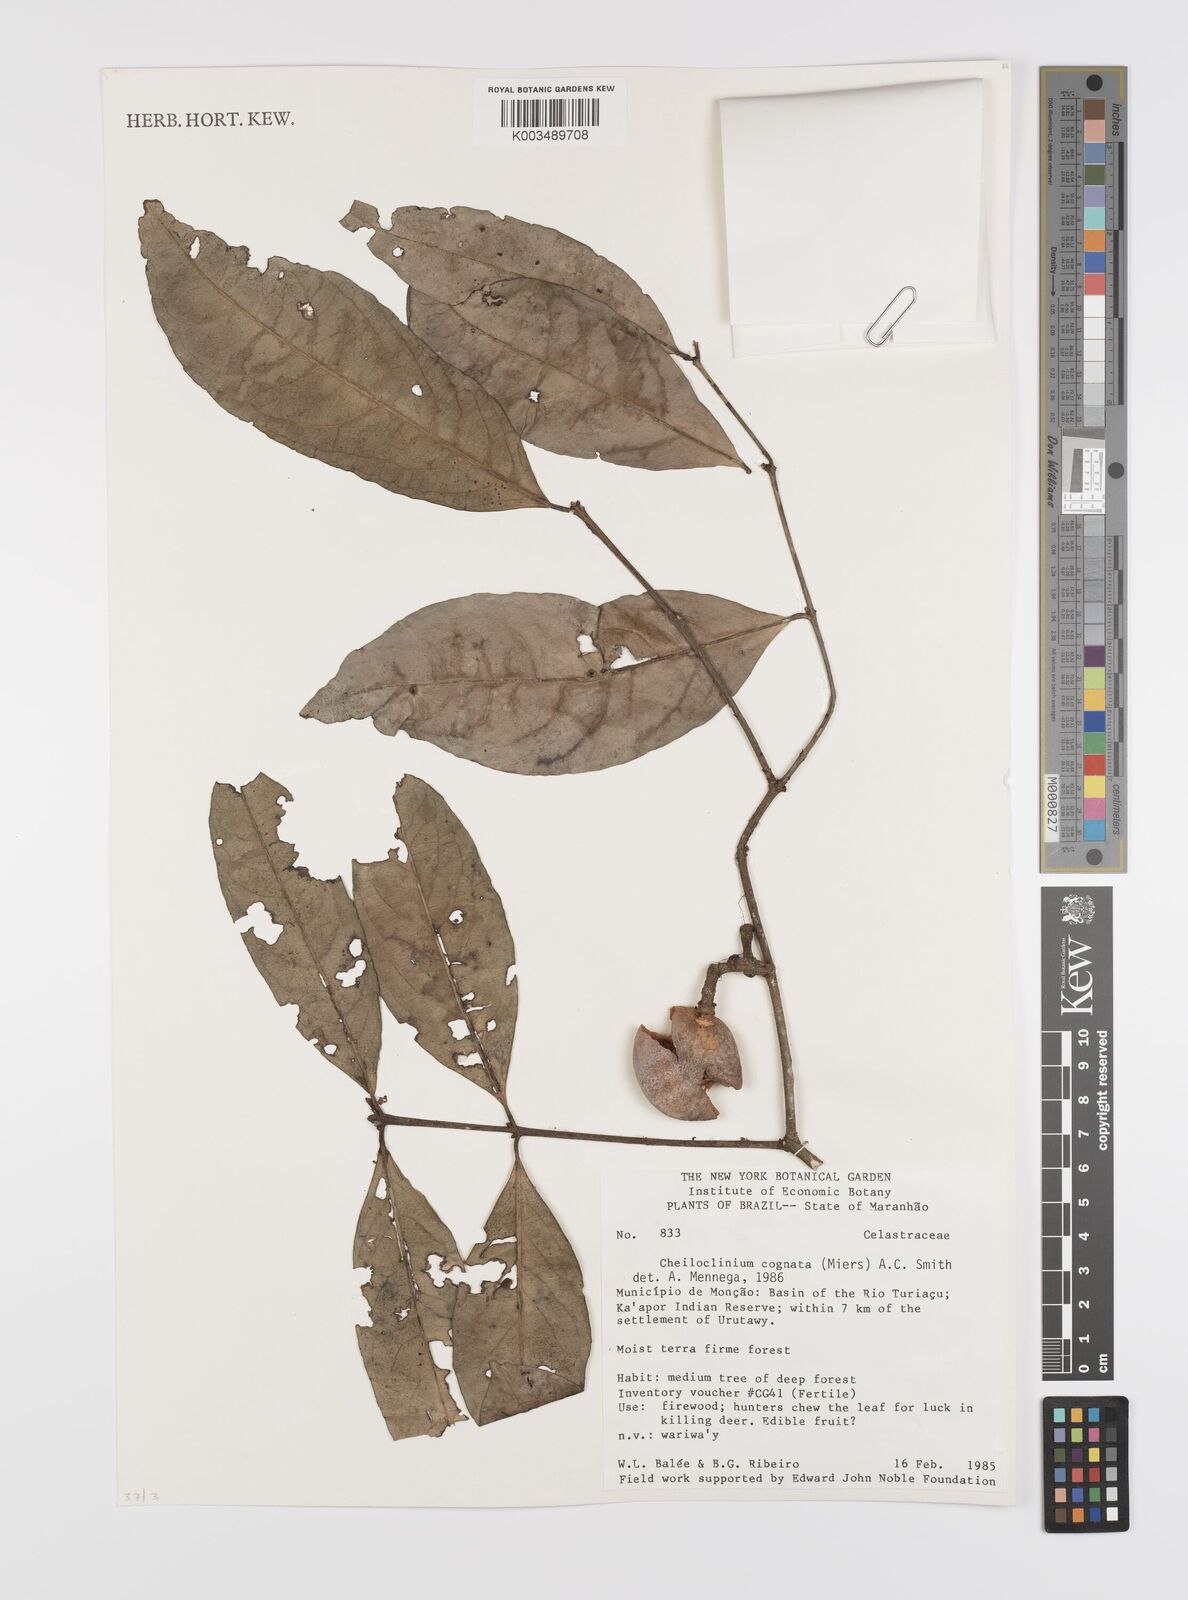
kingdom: Plantae
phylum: Tracheophyta
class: Magnoliopsida
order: Celastrales
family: Celastraceae
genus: Cheiloclinium
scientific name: Cheiloclinium cognatum
